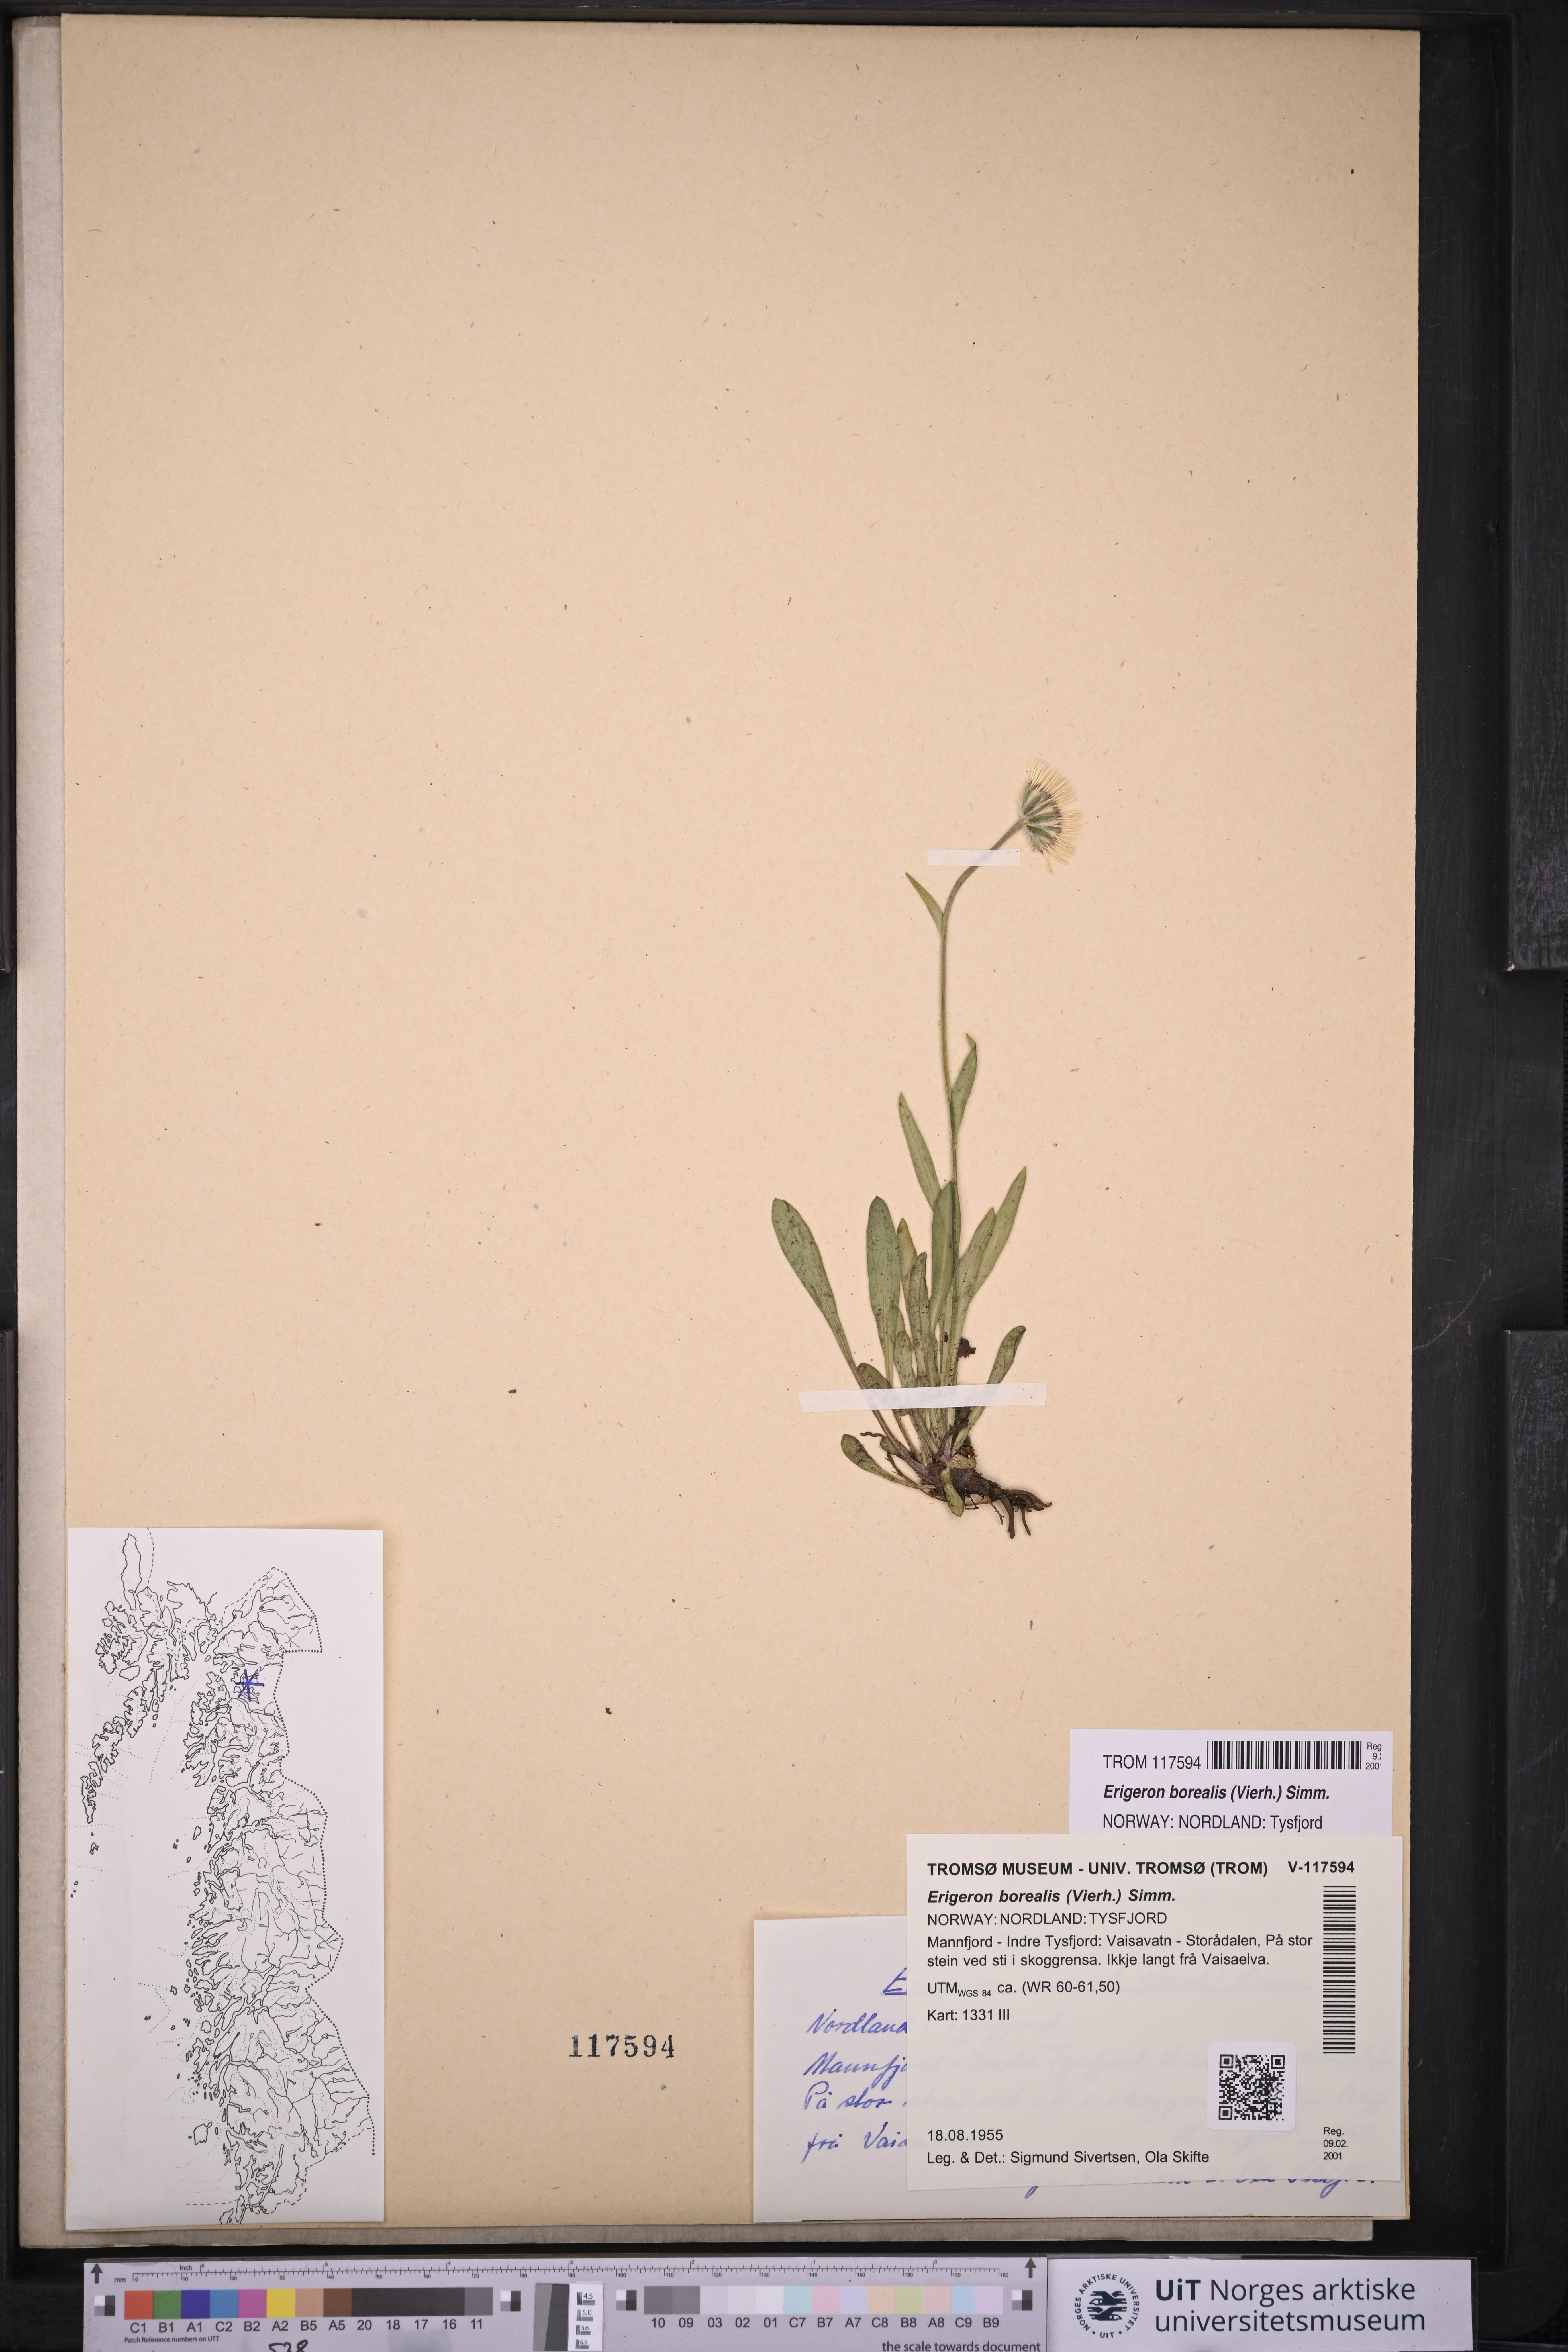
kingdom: Plantae
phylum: Tracheophyta
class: Magnoliopsida
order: Asterales
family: Asteraceae
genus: Erigeron
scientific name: Erigeron borealis
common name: Alpine fleabane
